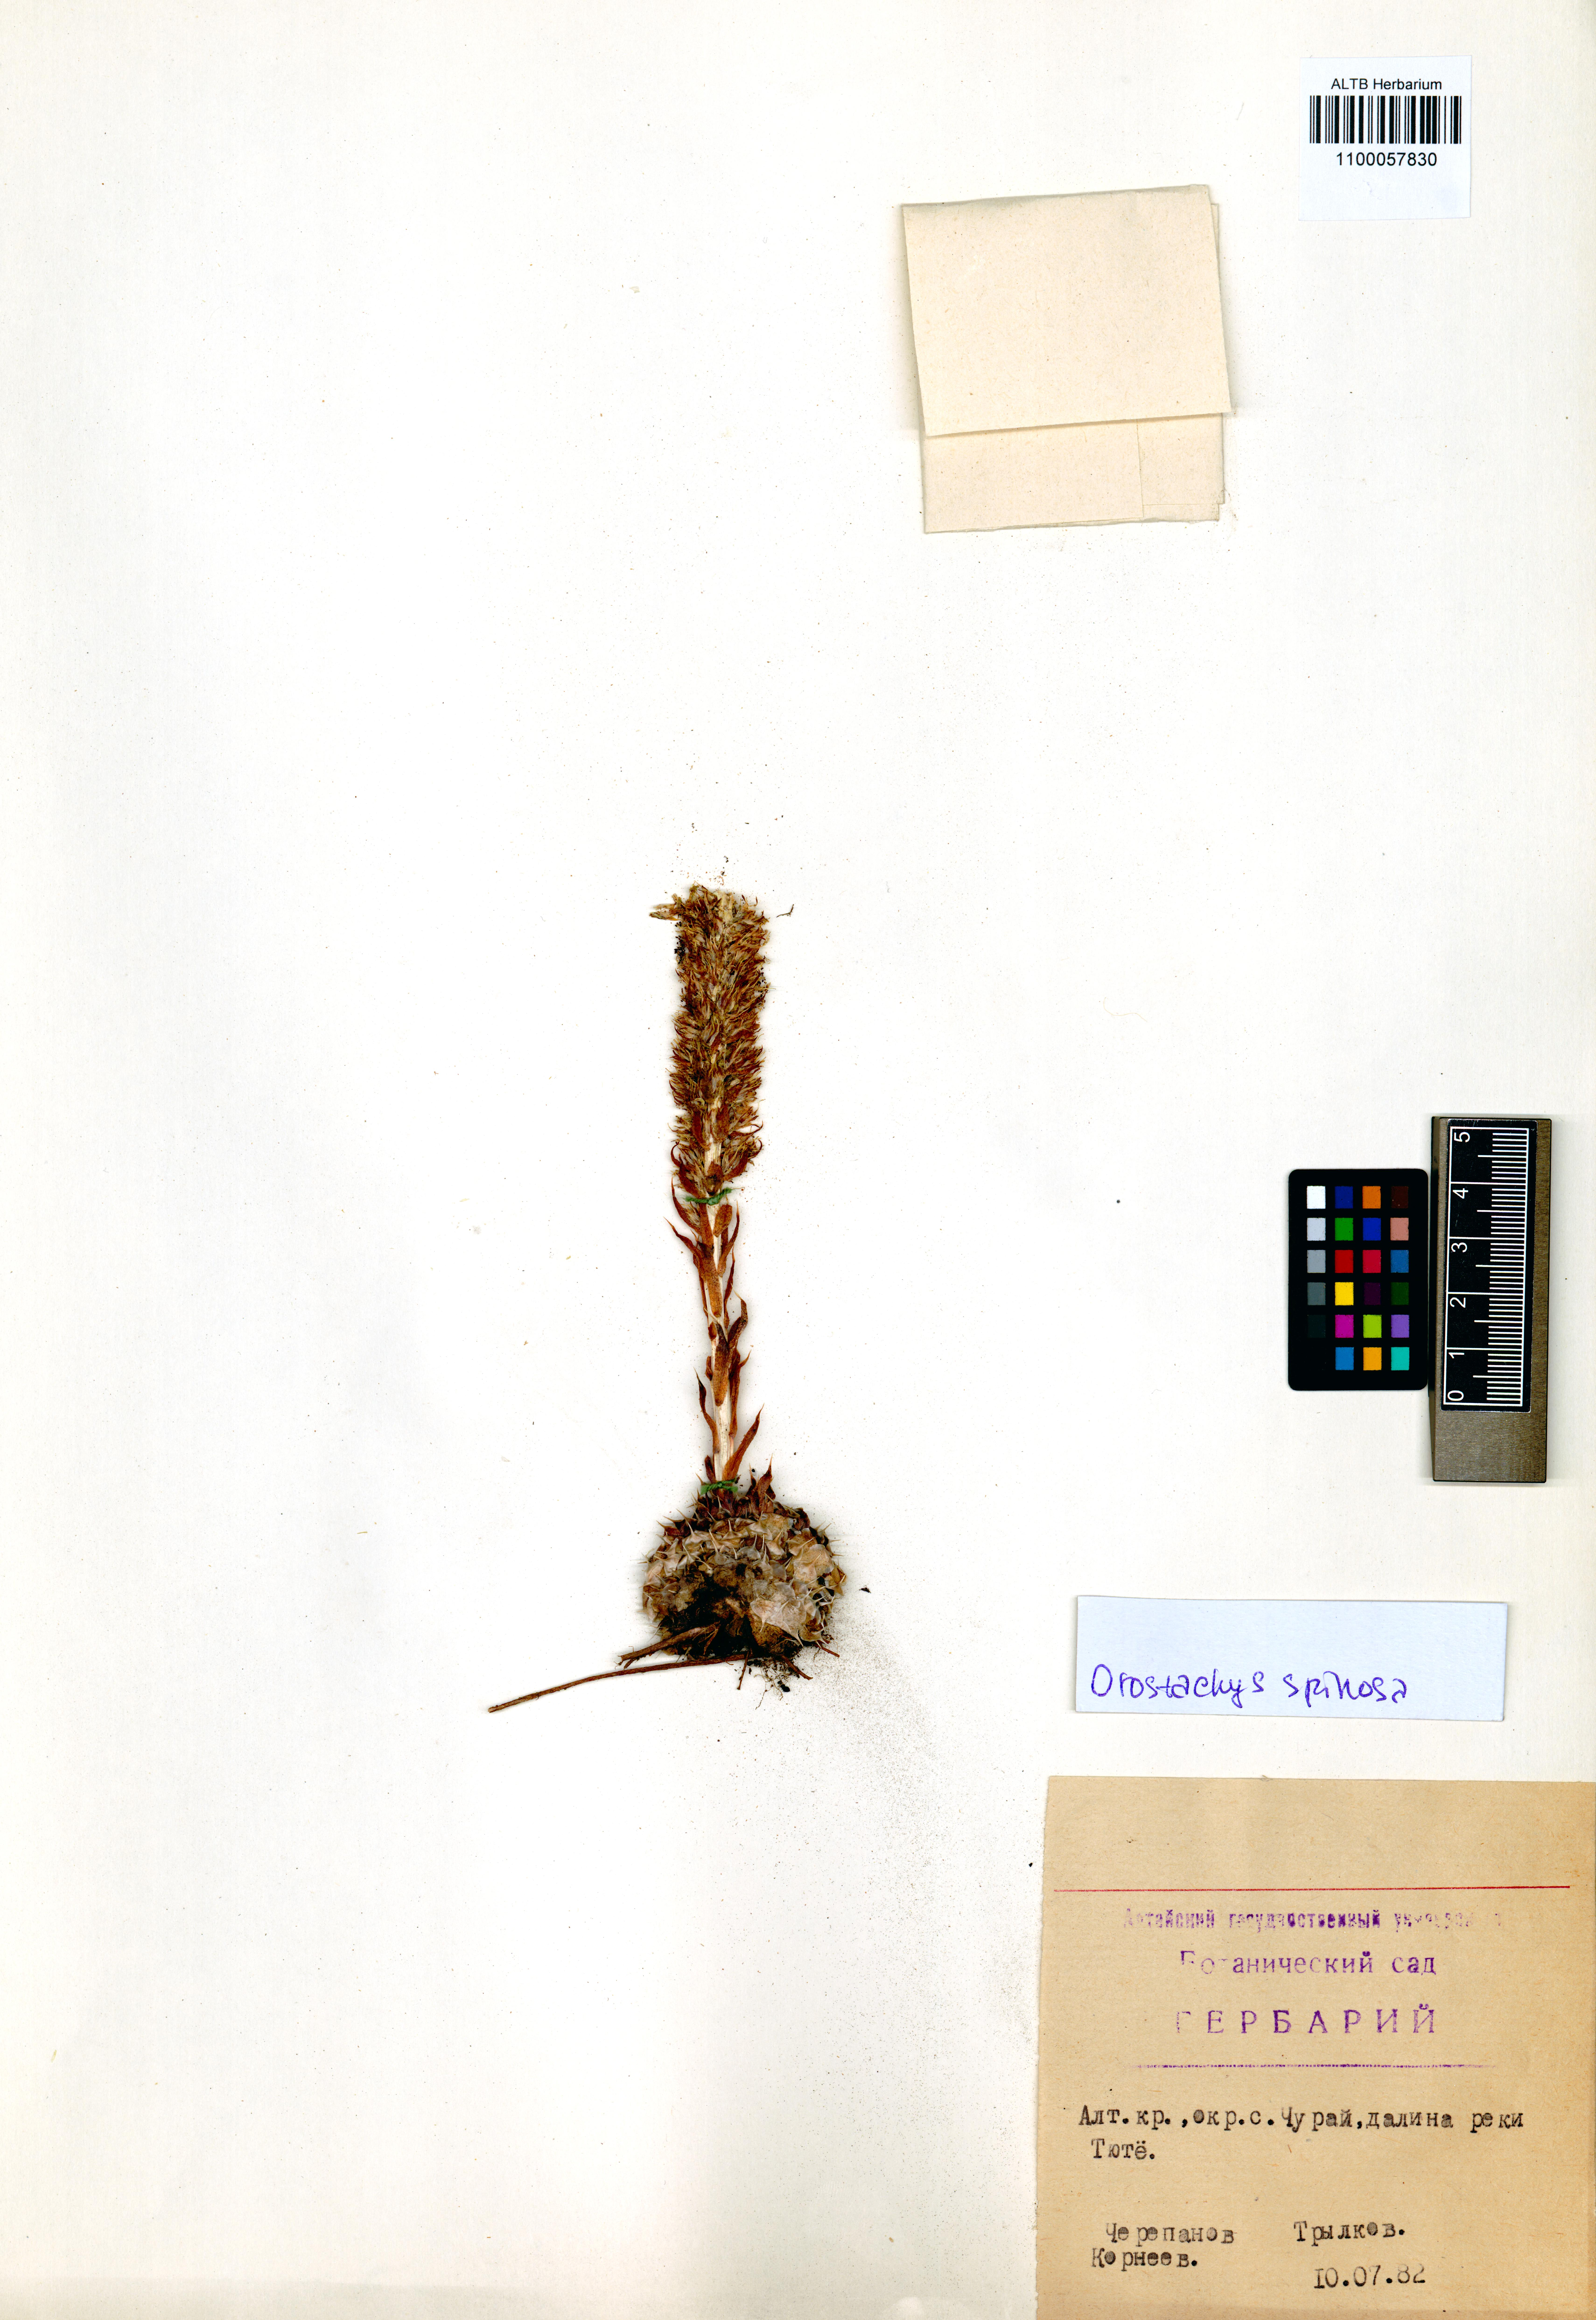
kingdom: Plantae
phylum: Tracheophyta
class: Magnoliopsida
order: Saxifragales
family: Crassulaceae
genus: Orostachys
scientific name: Orostachys spinosa
